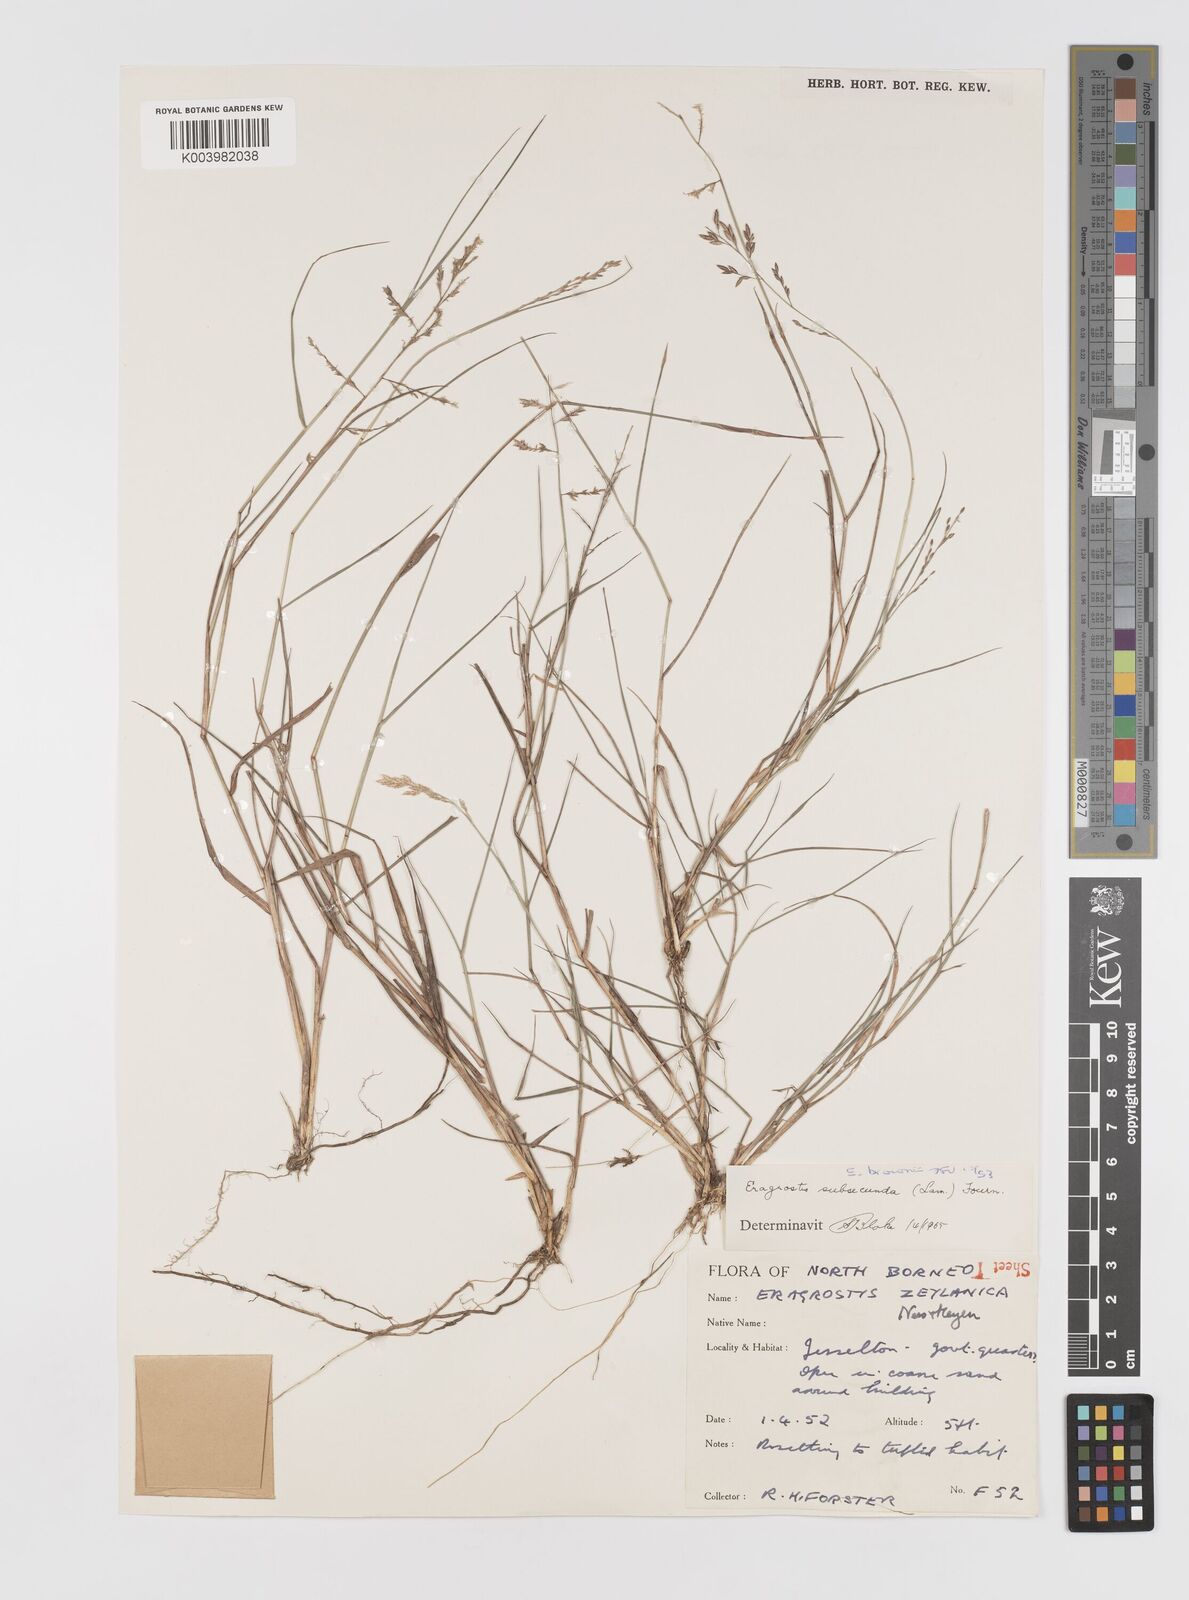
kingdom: Plantae
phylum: Tracheophyta
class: Liliopsida
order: Poales
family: Poaceae
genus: Eragrostis
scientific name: Eragrostis brownii
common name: Lovegrass
